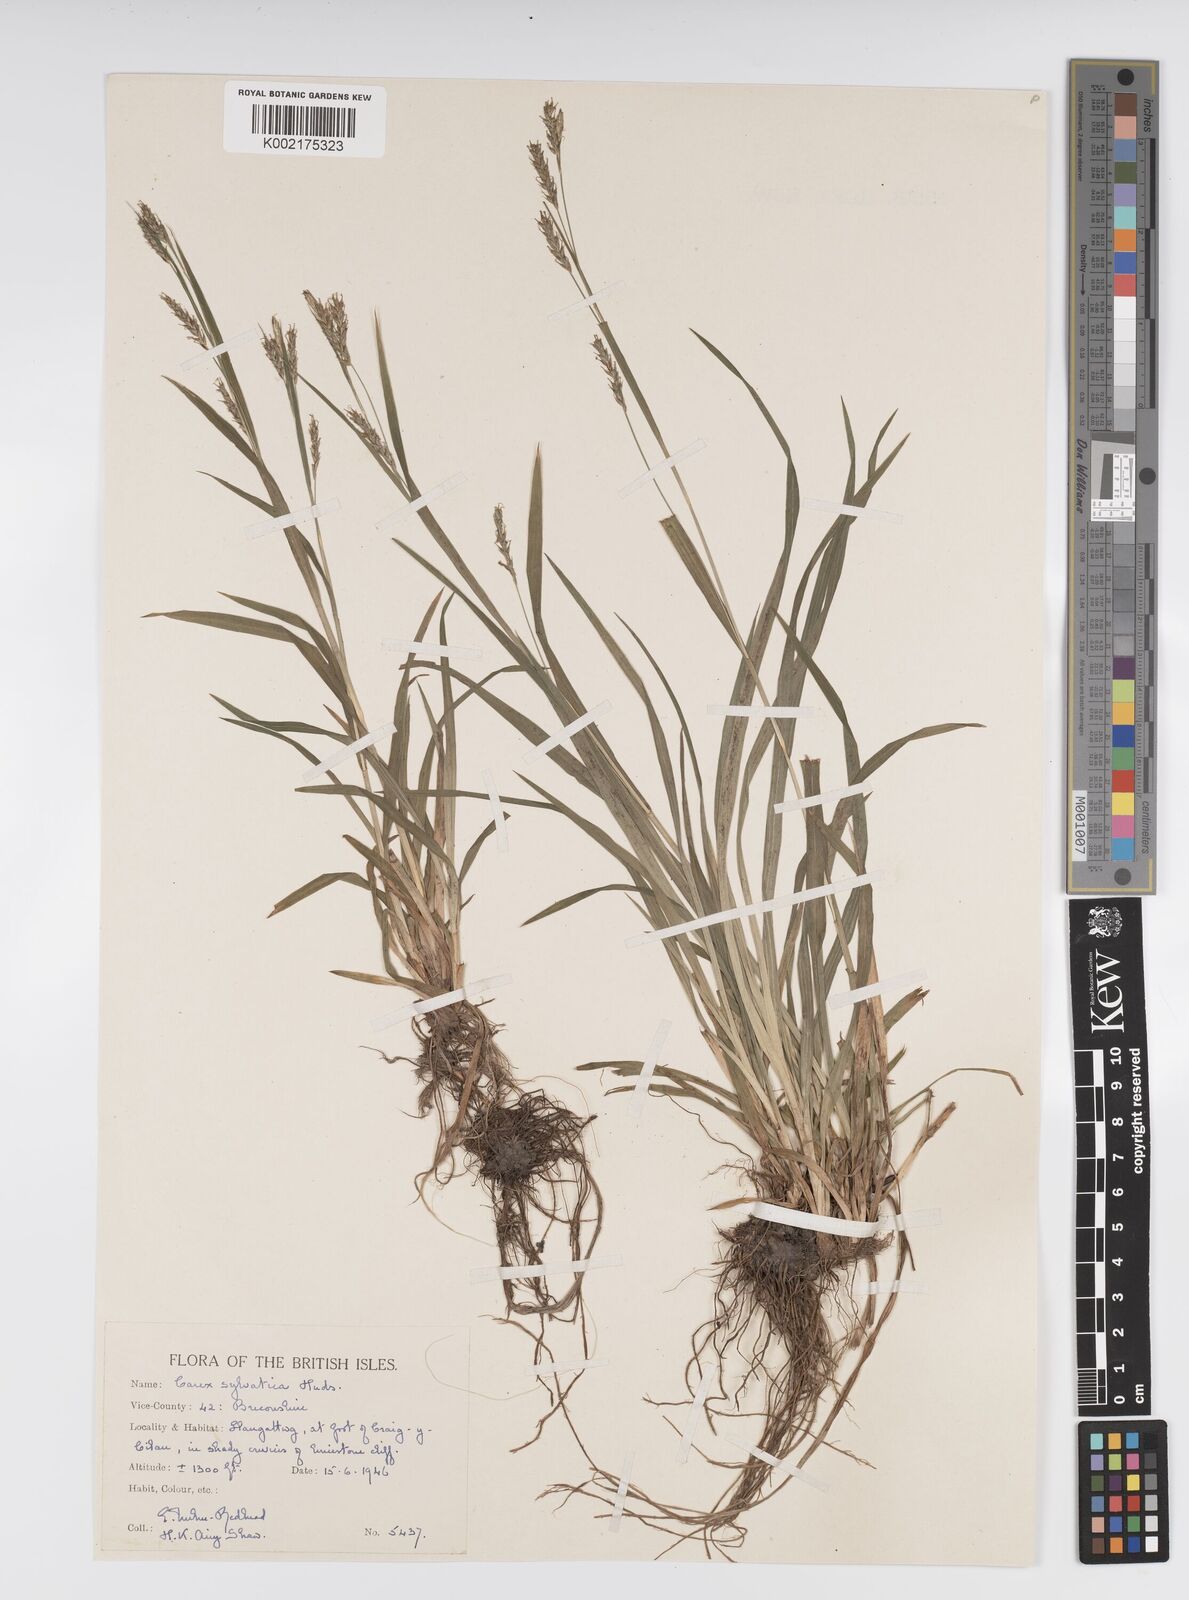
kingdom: Plantae
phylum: Tracheophyta
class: Liliopsida
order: Poales
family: Cyperaceae
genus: Carex
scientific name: Carex sylvatica
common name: Wood-sedge
